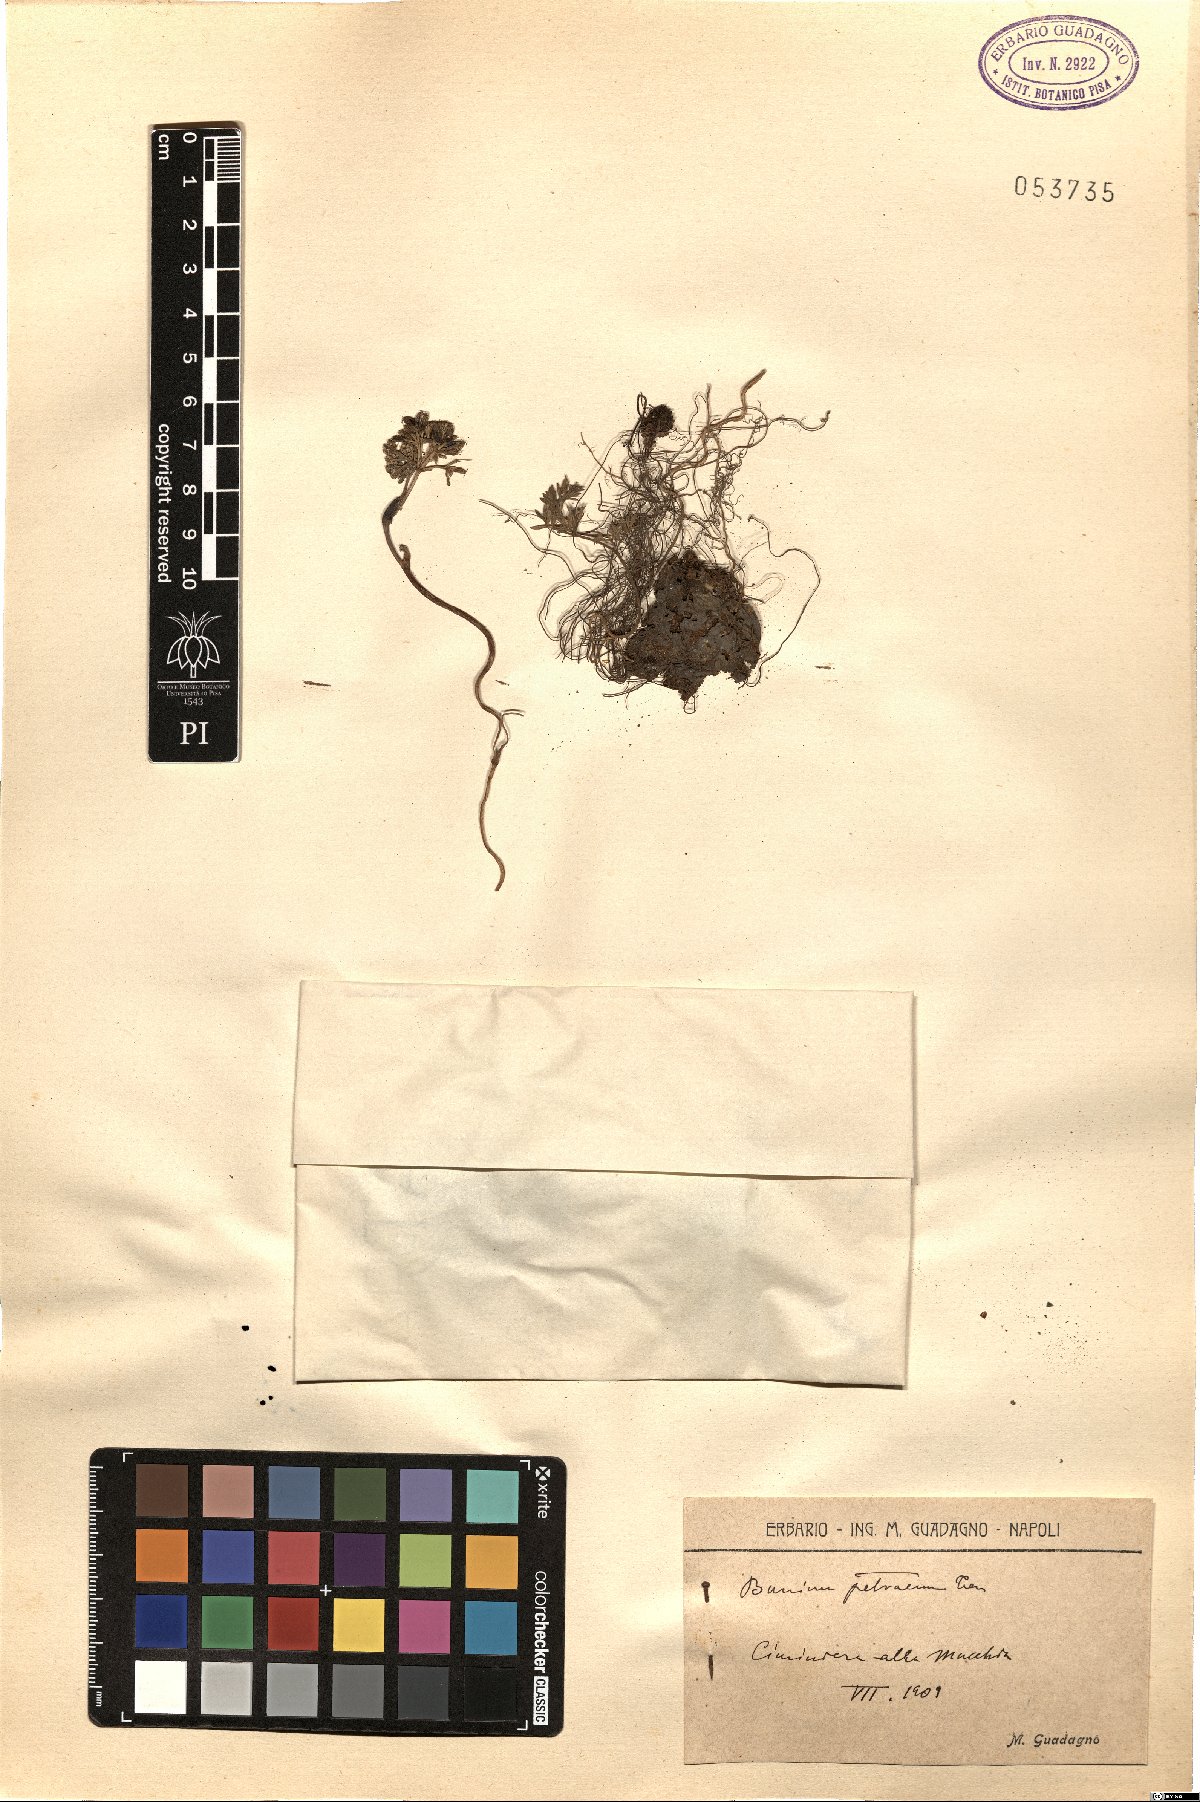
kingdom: Plantae
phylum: Tracheophyta
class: Magnoliopsida
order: Apiales
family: Apiaceae
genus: Bunium
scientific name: Bunium alpinum
